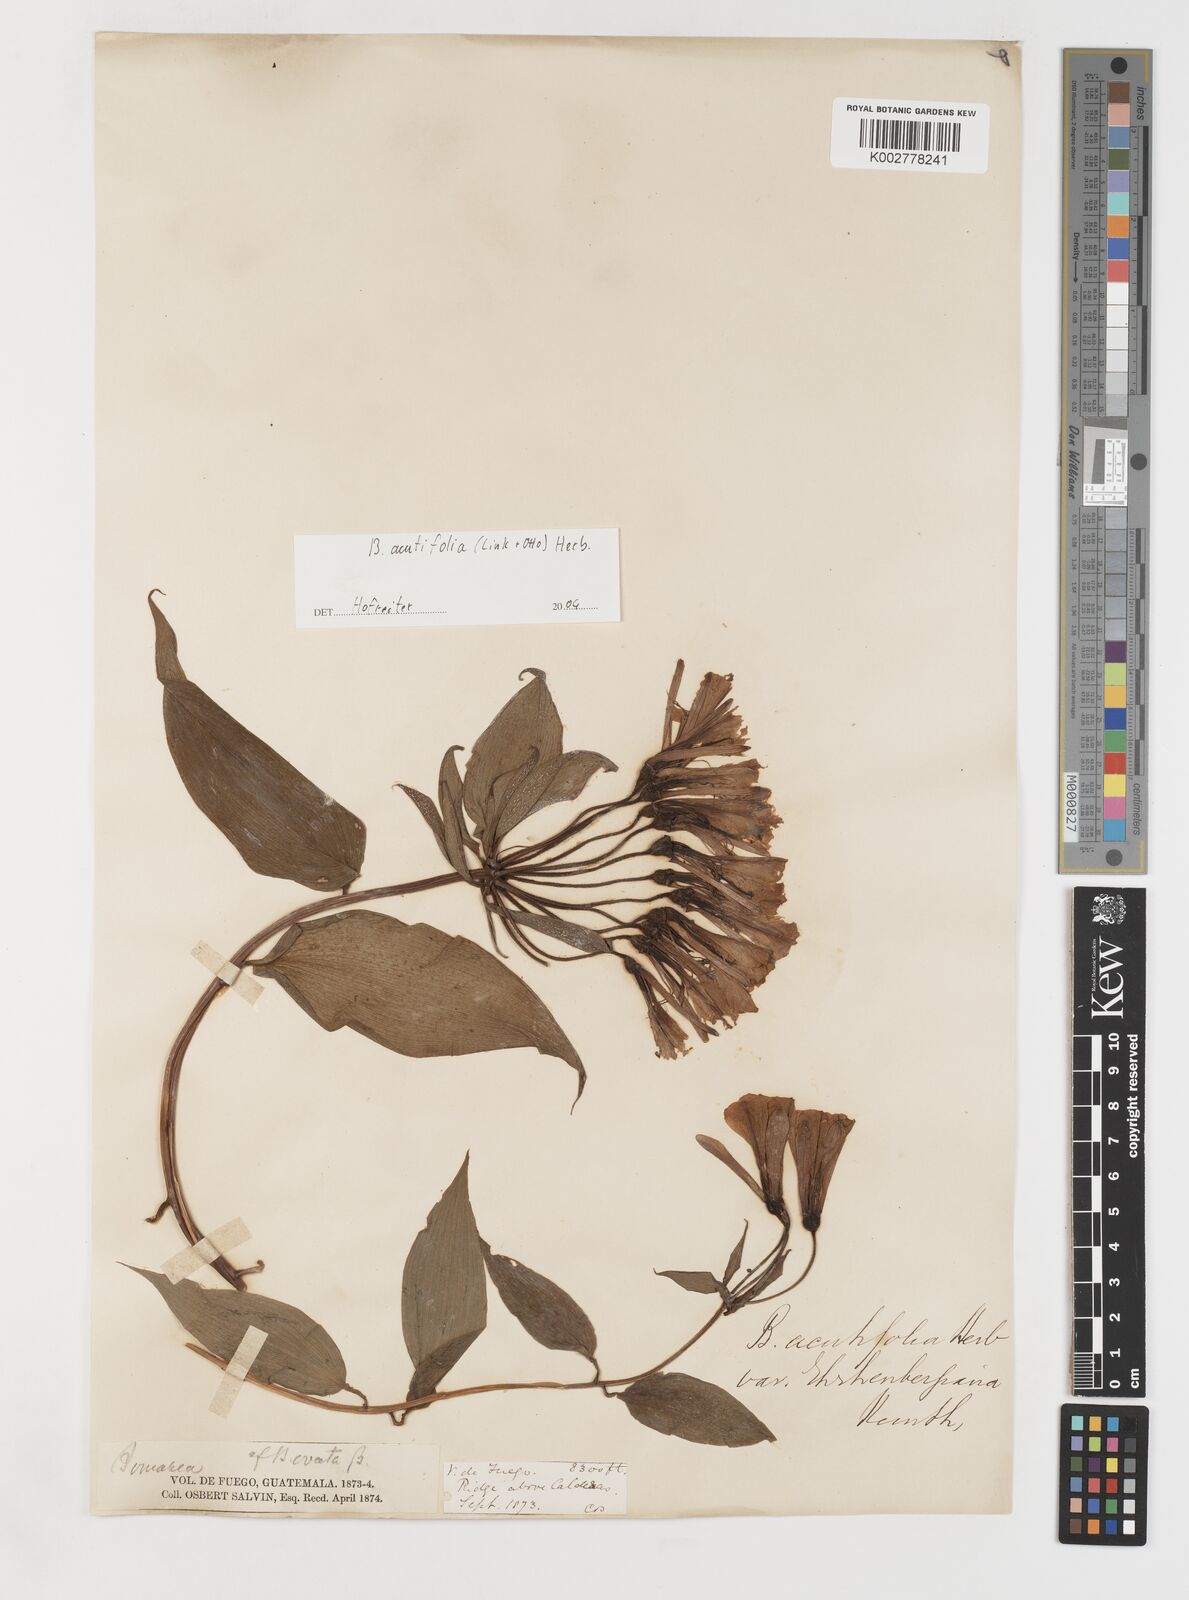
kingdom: Plantae
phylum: Tracheophyta
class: Liliopsida
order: Liliales
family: Alstroemeriaceae
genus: Bomarea
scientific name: Bomarea acutifolia
